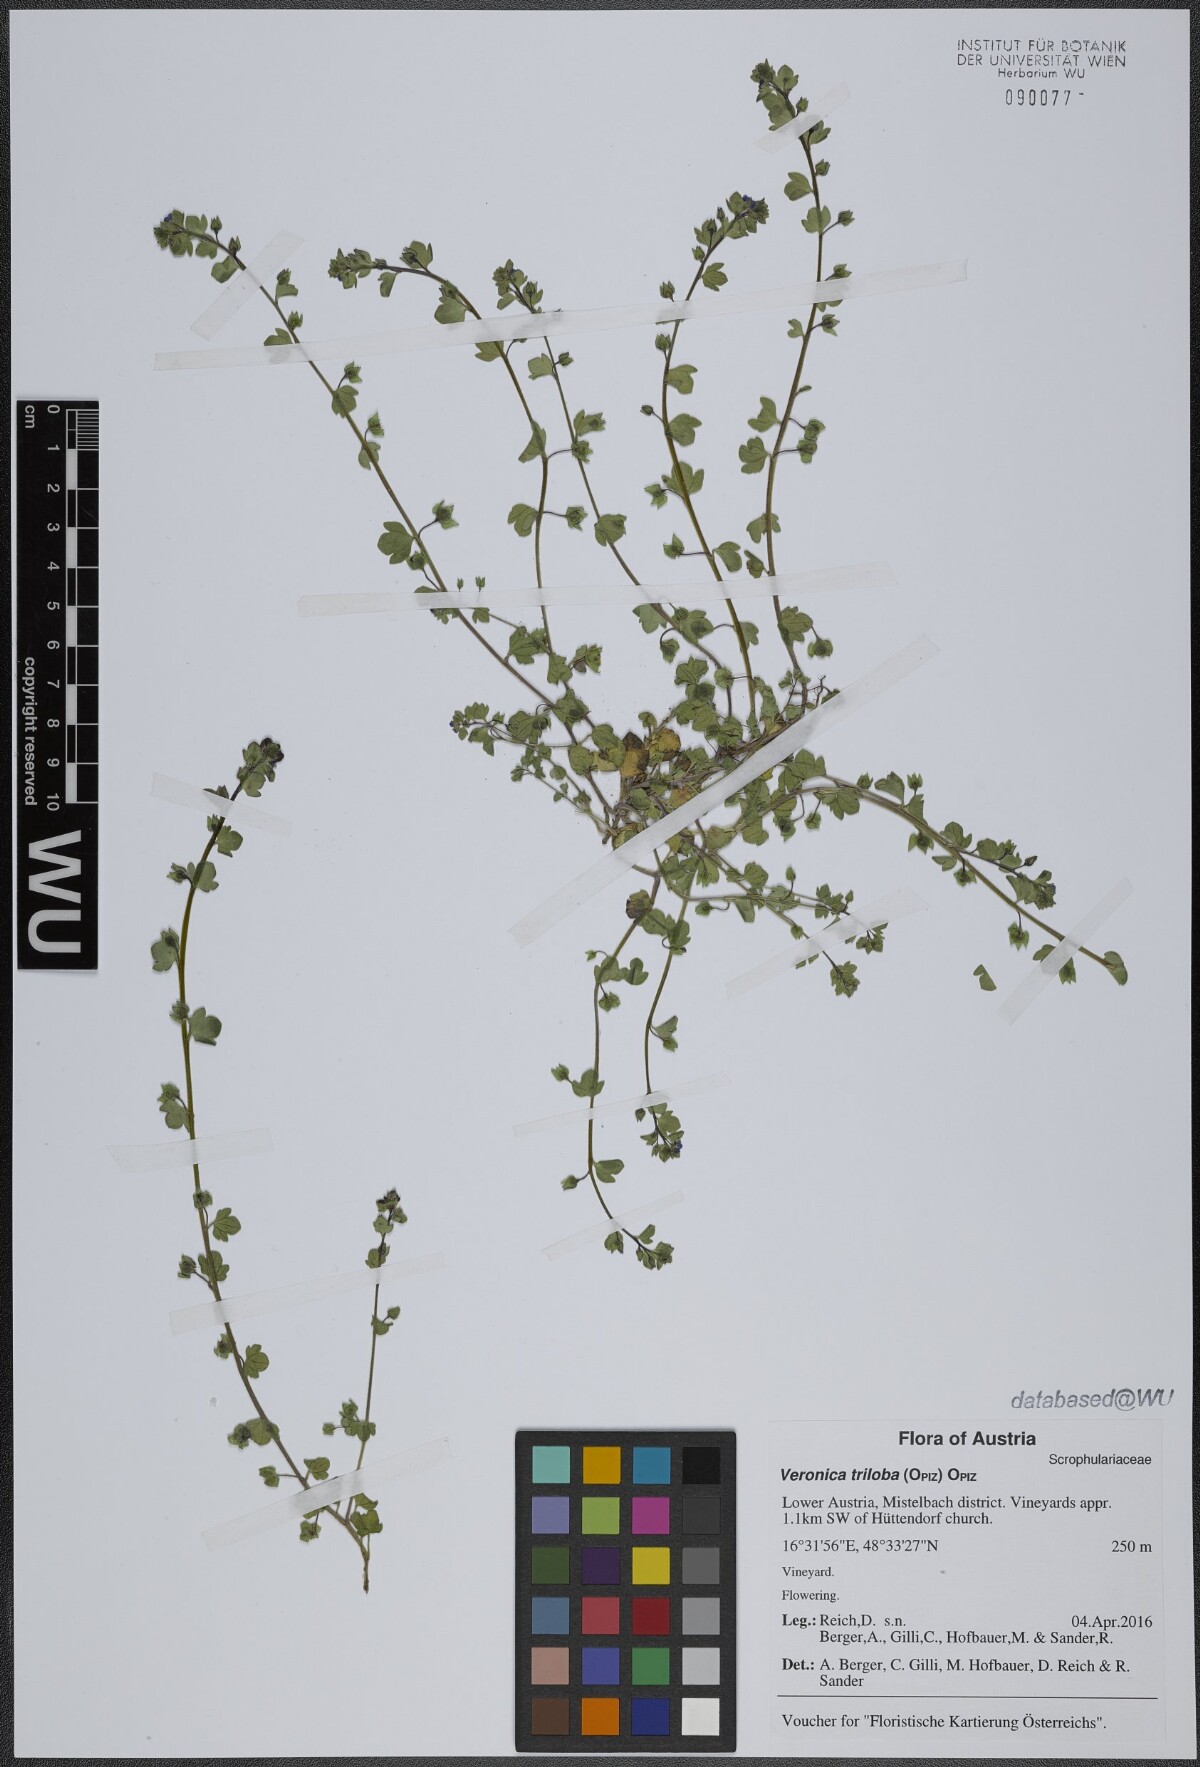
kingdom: Plantae
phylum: Tracheophyta
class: Magnoliopsida
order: Lamiales
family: Plantaginaceae
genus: Veronica
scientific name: Veronica triloba
